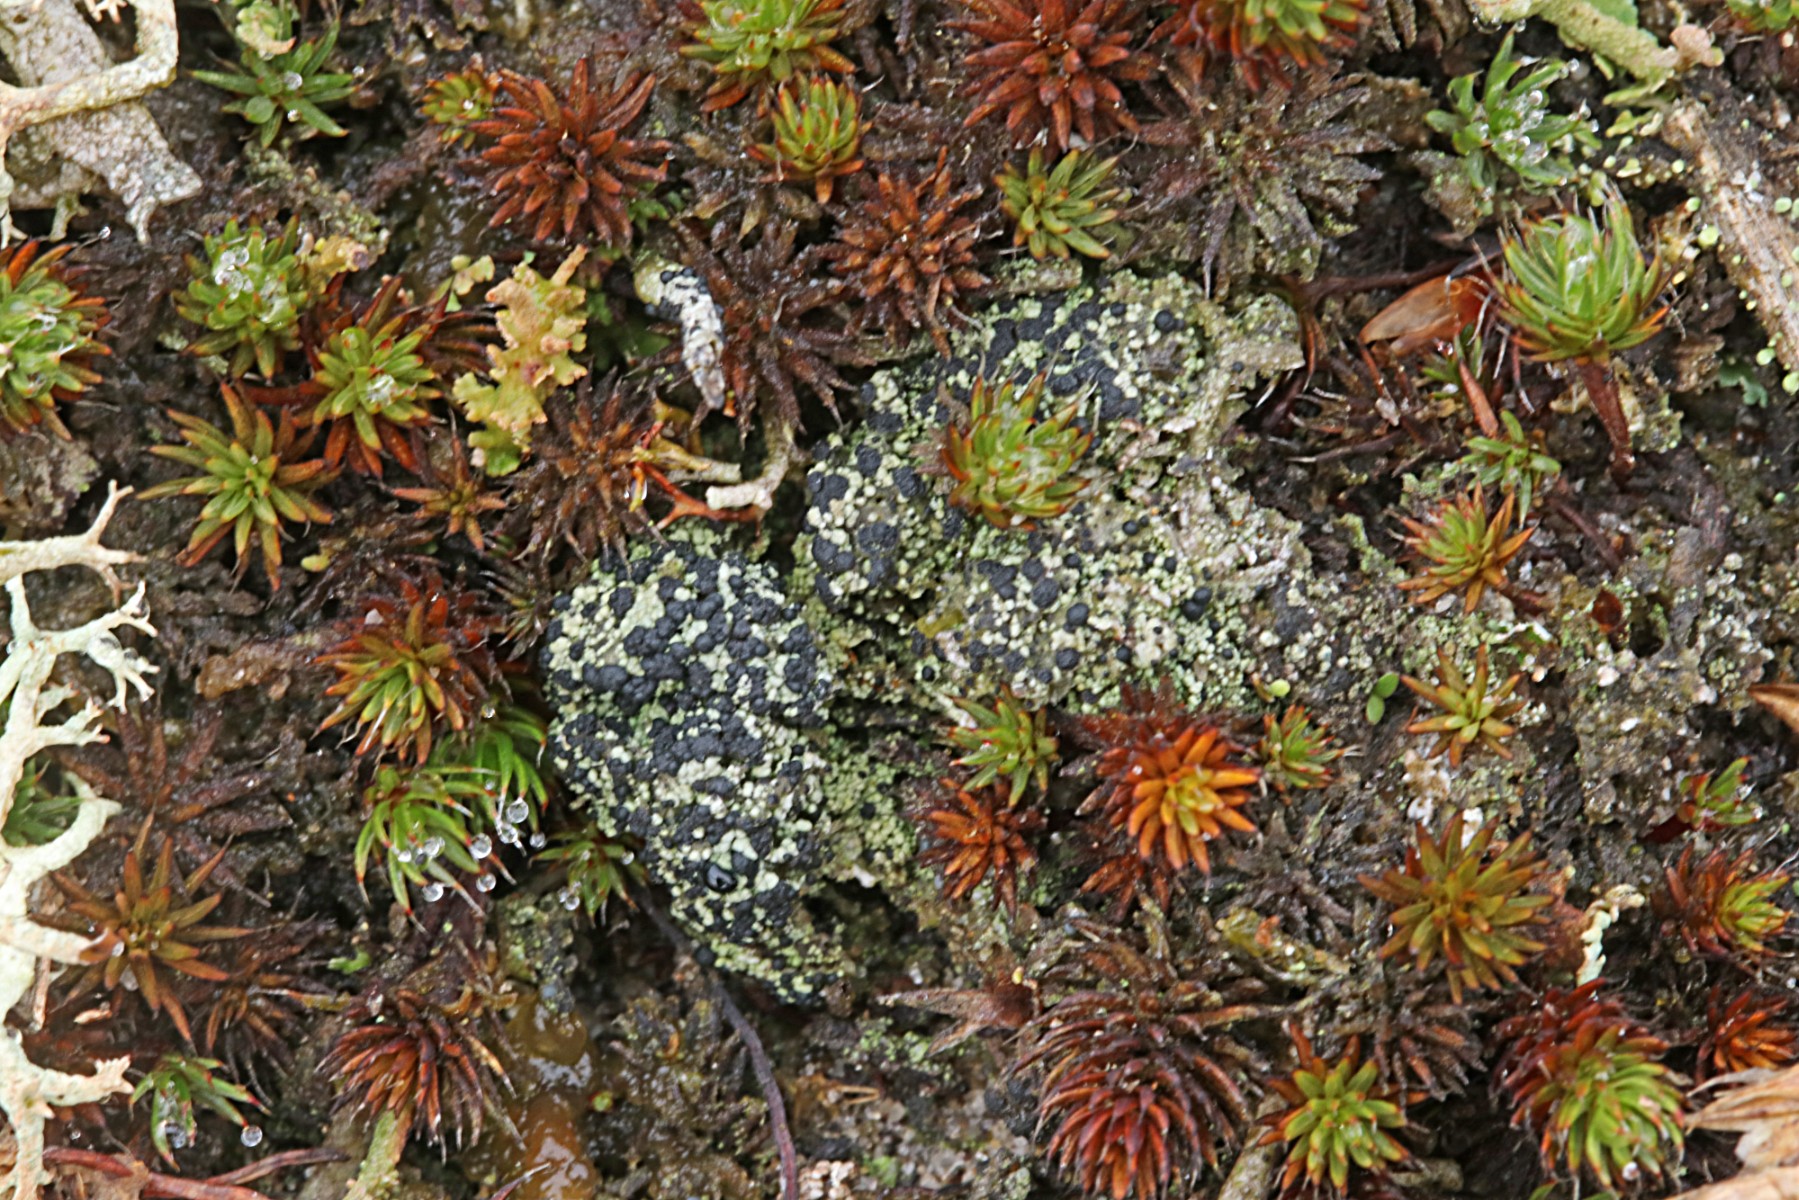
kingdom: Fungi
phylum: Ascomycota
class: Lecanoromycetes
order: Lecanorales
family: Byssolomataceae
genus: Micarea
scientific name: Micarea lignaria
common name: tørve-knaplav
